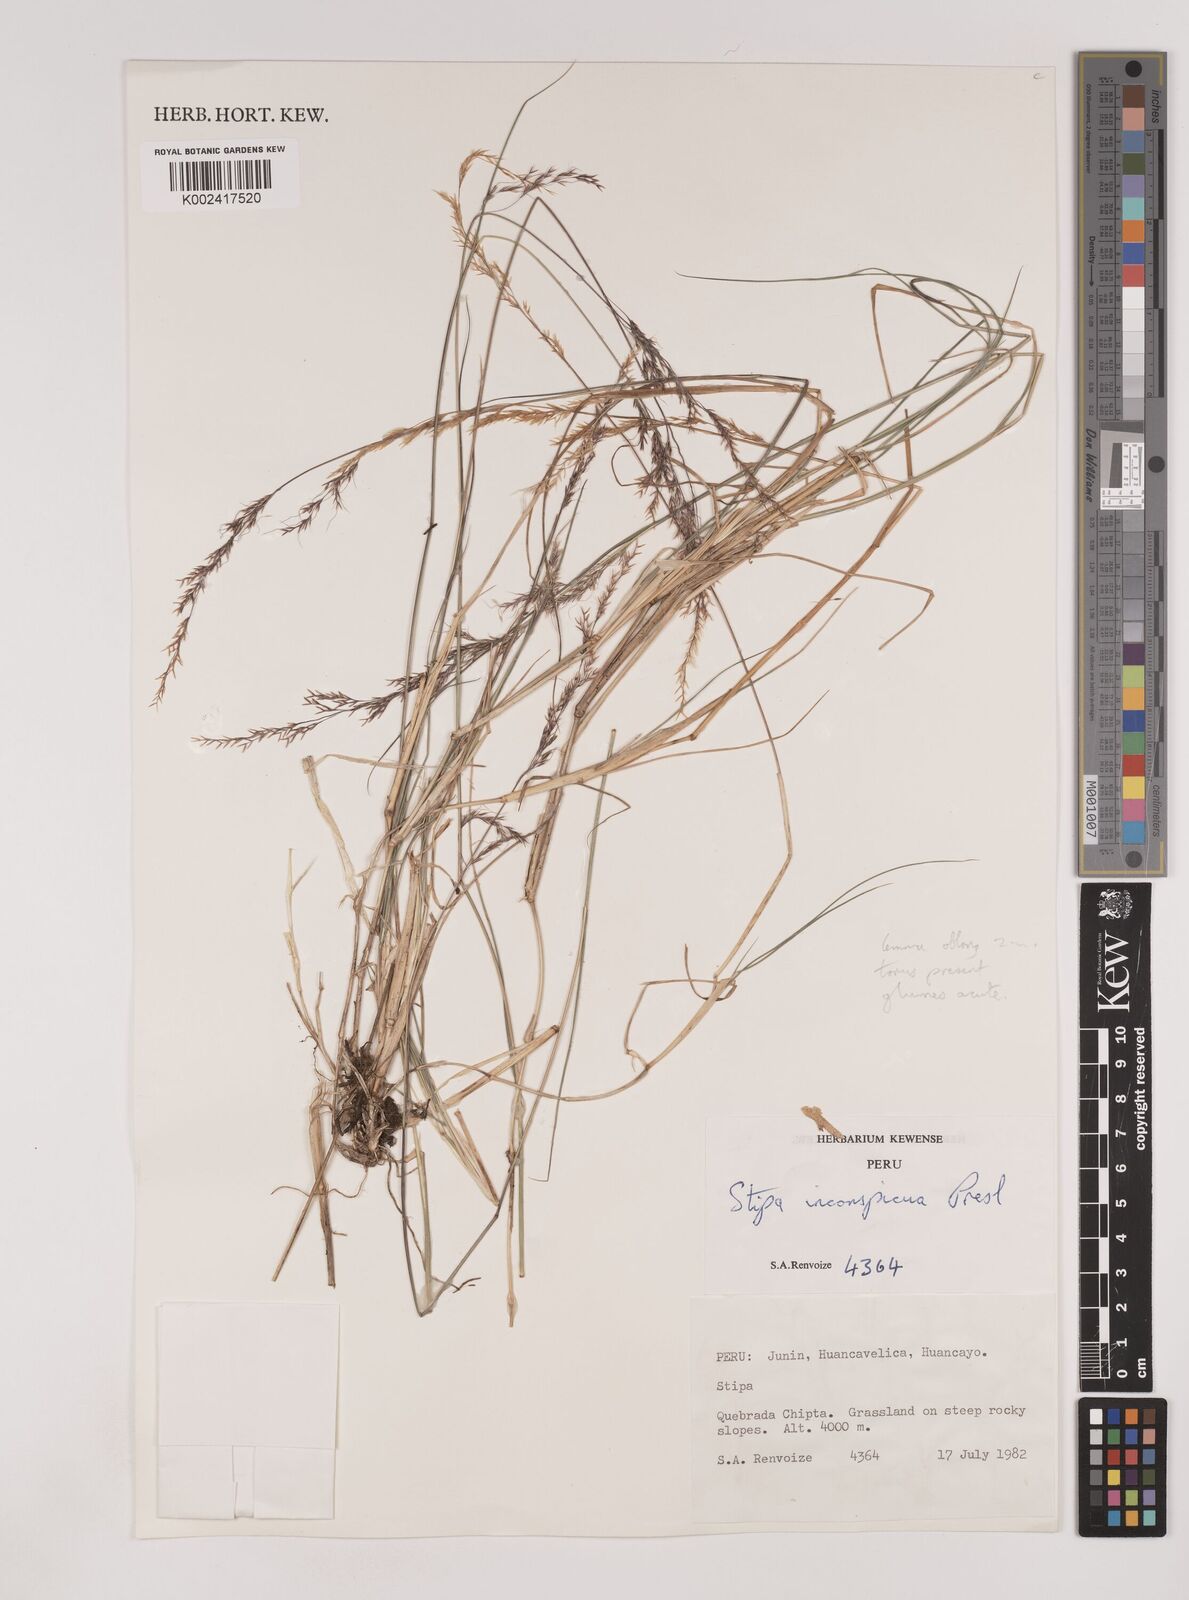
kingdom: Plantae
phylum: Tracheophyta
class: Liliopsida
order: Poales
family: Poaceae
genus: Nassella
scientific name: Nassella pubiflora
